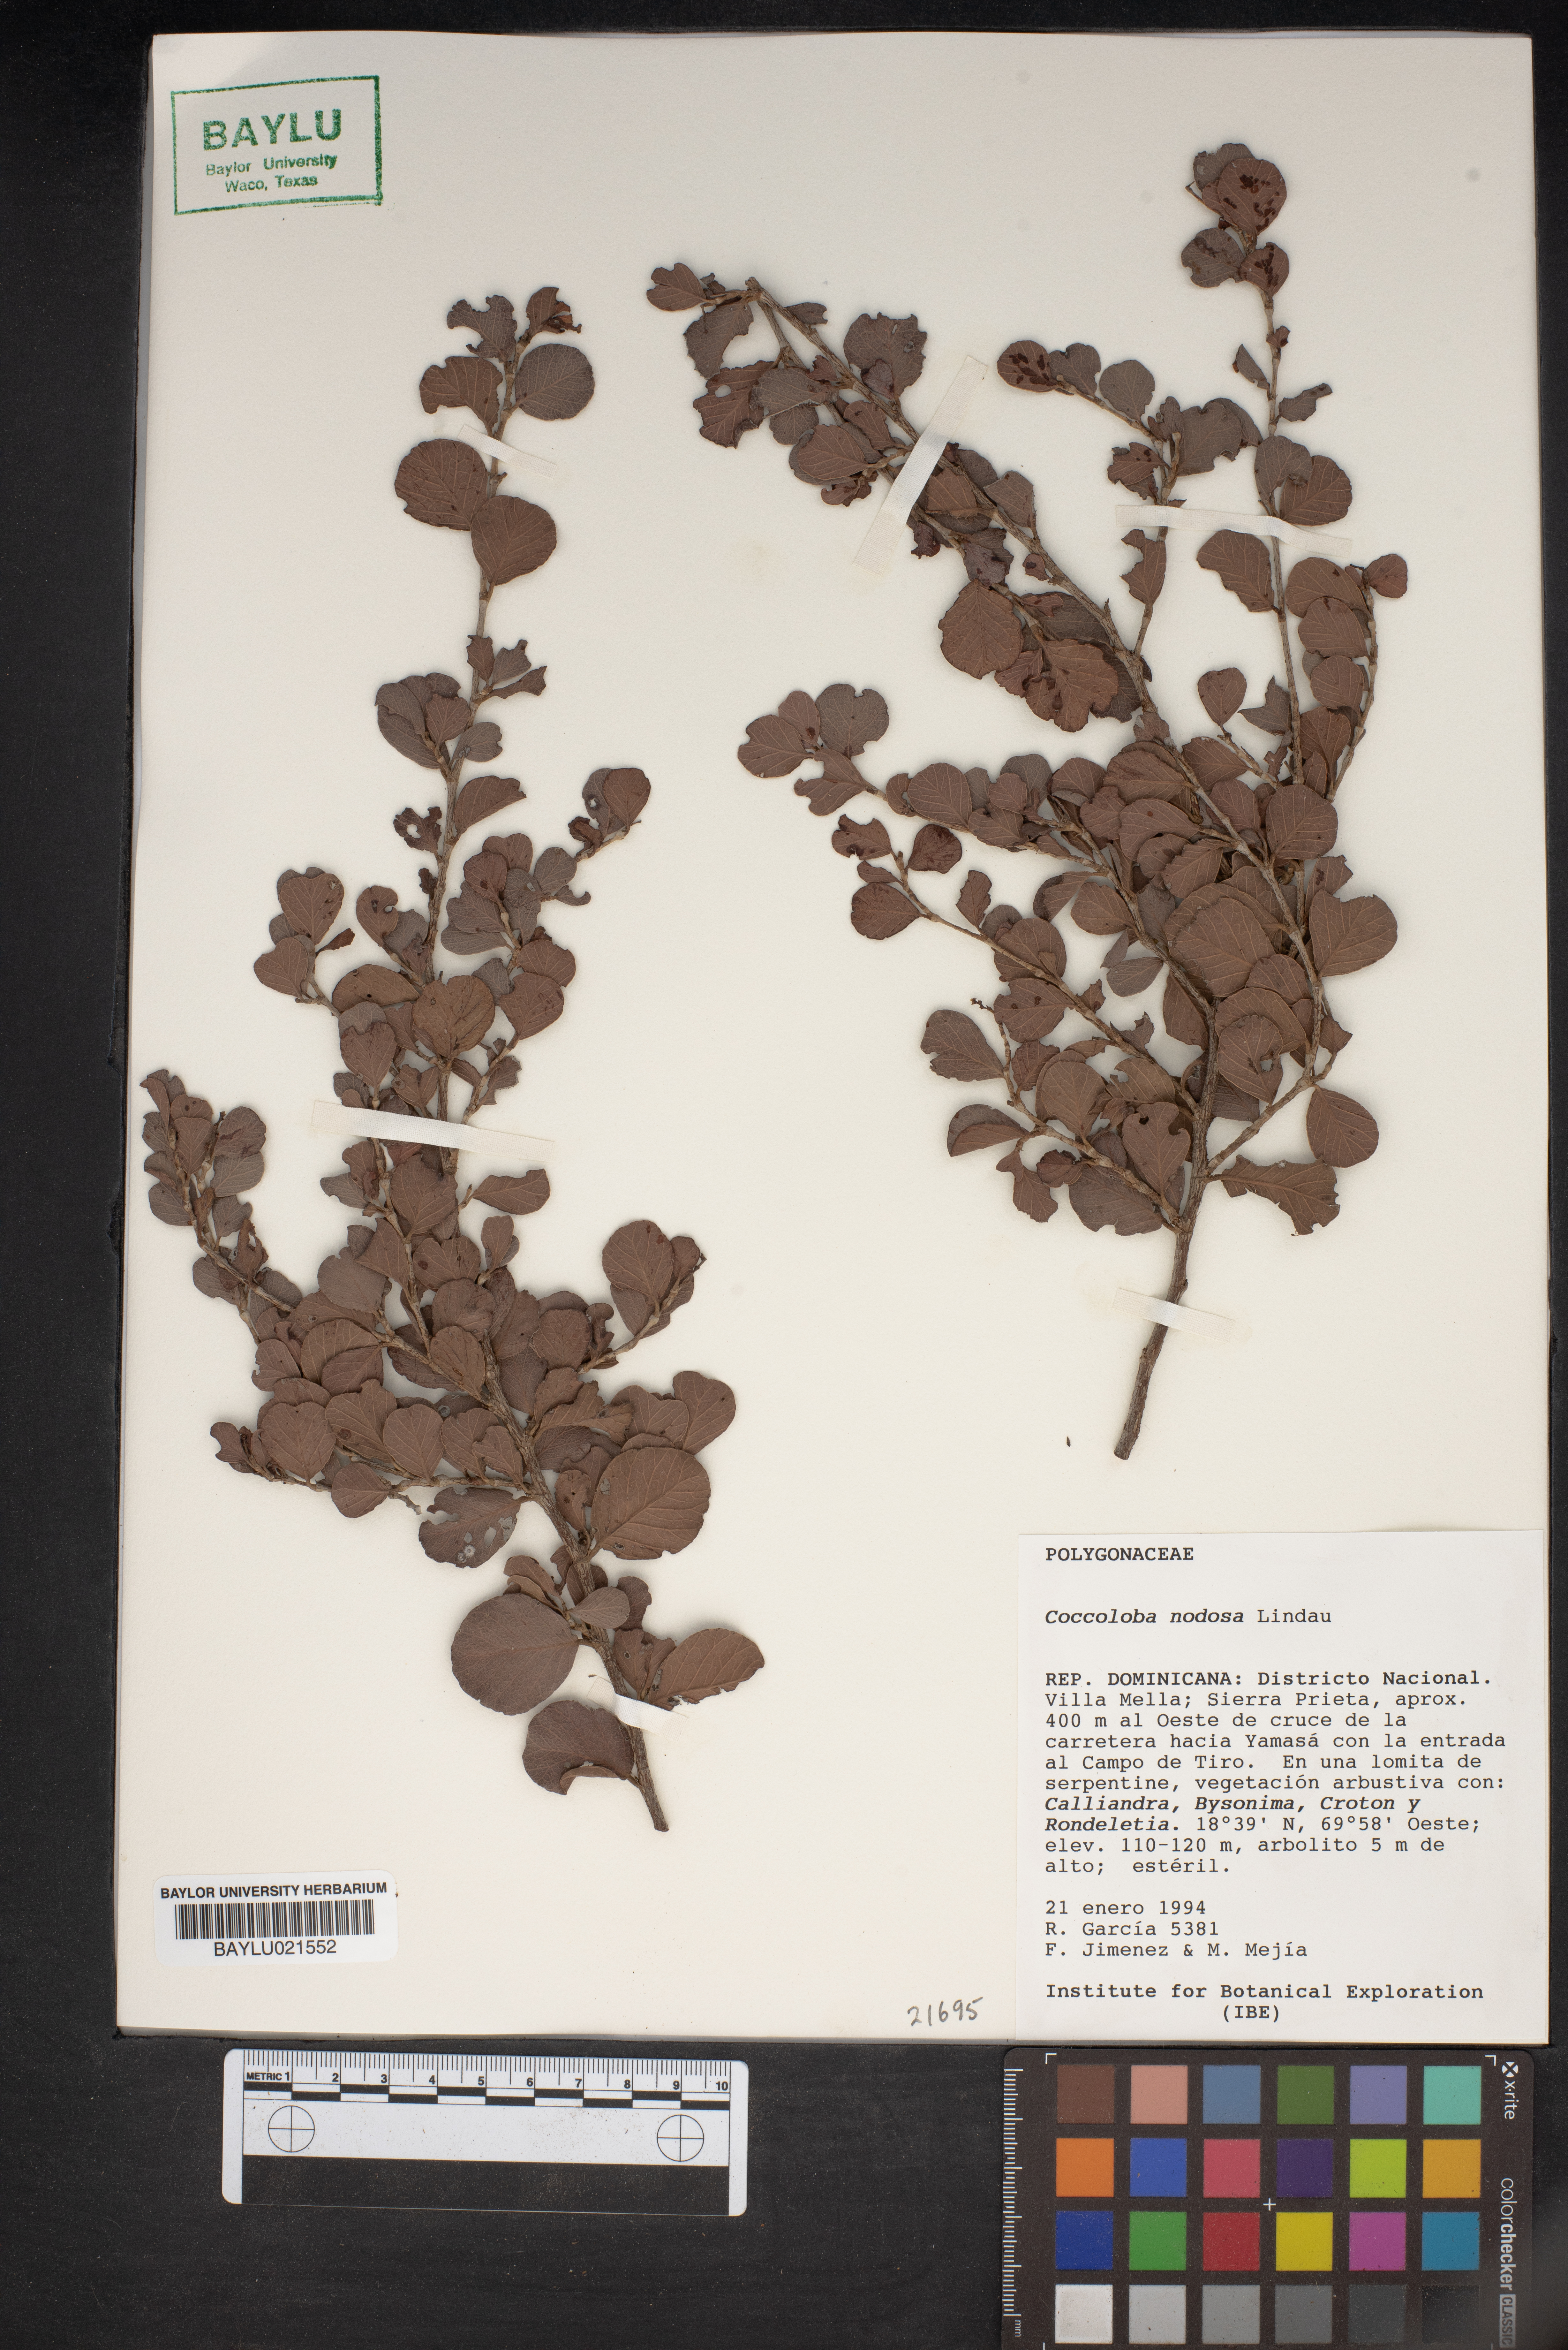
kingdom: Plantae
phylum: Tracheophyta
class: Magnoliopsida
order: Caryophyllales
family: Polygonaceae
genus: Coccoloba
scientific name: Coccoloba nodosa
